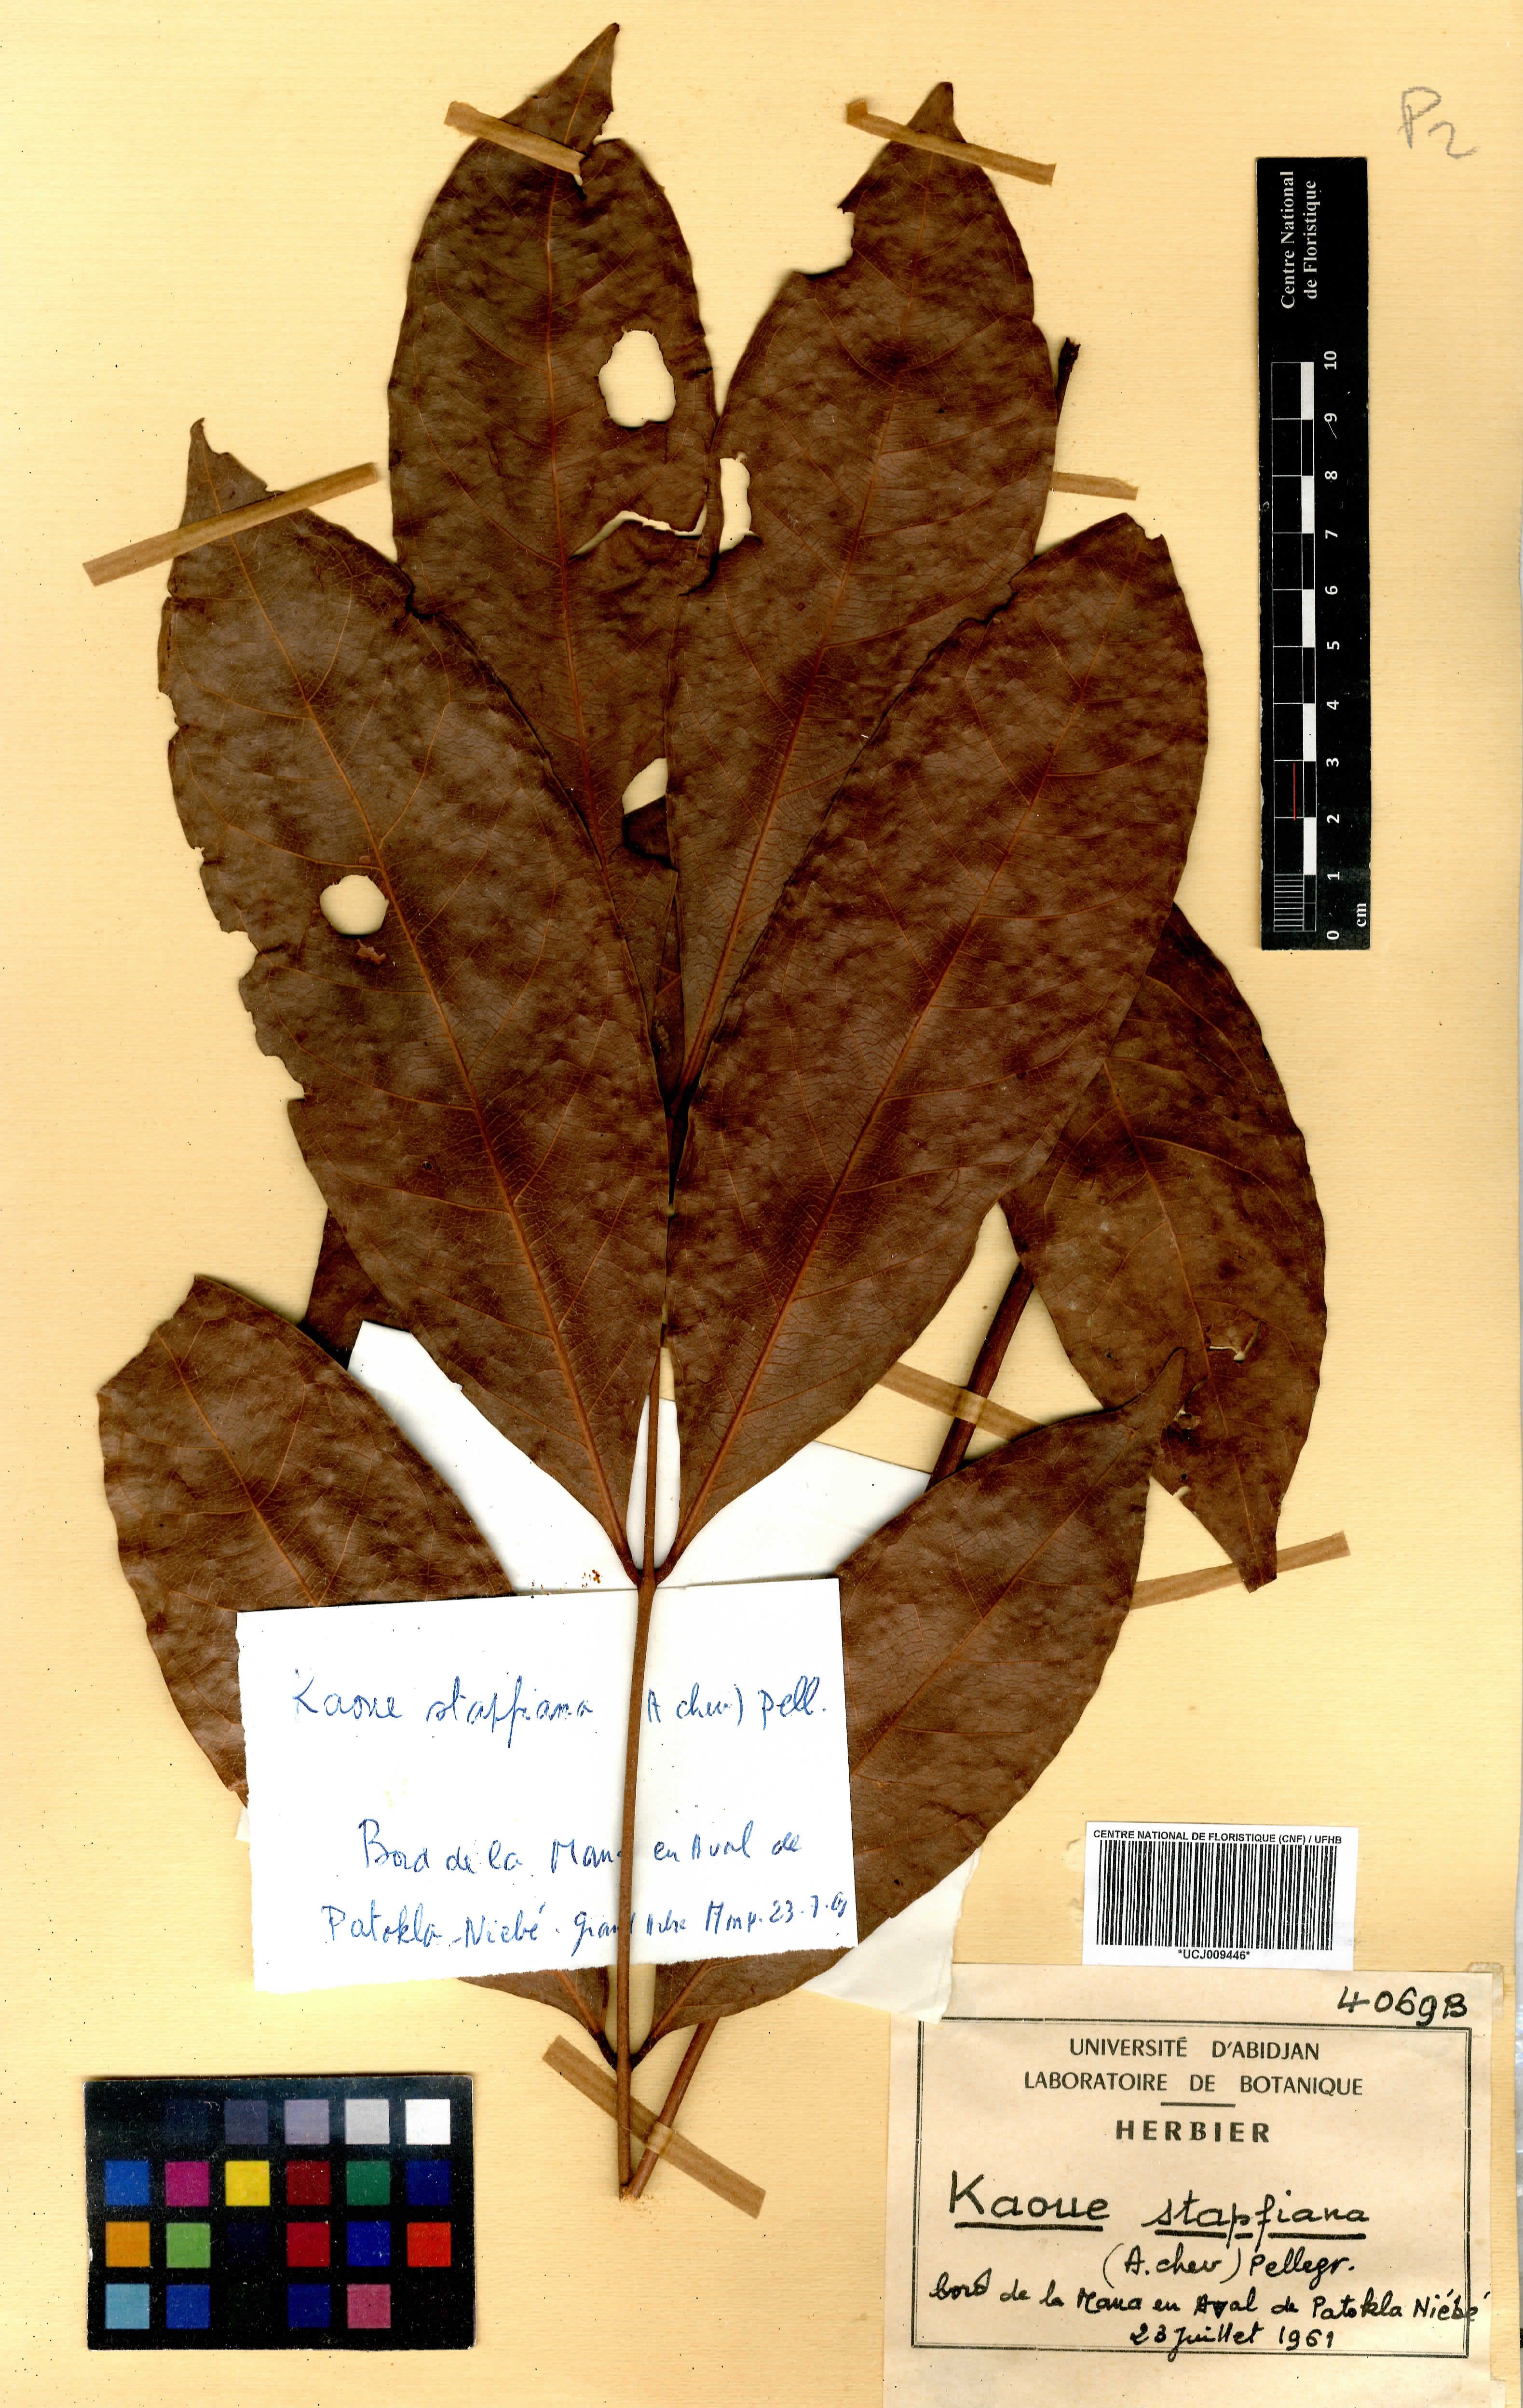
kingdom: Plantae
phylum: Tracheophyta
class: Magnoliopsida
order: Fabales
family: Fabaceae
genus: Stachyothyrsus
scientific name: Stachyothyrsus stapfiana
